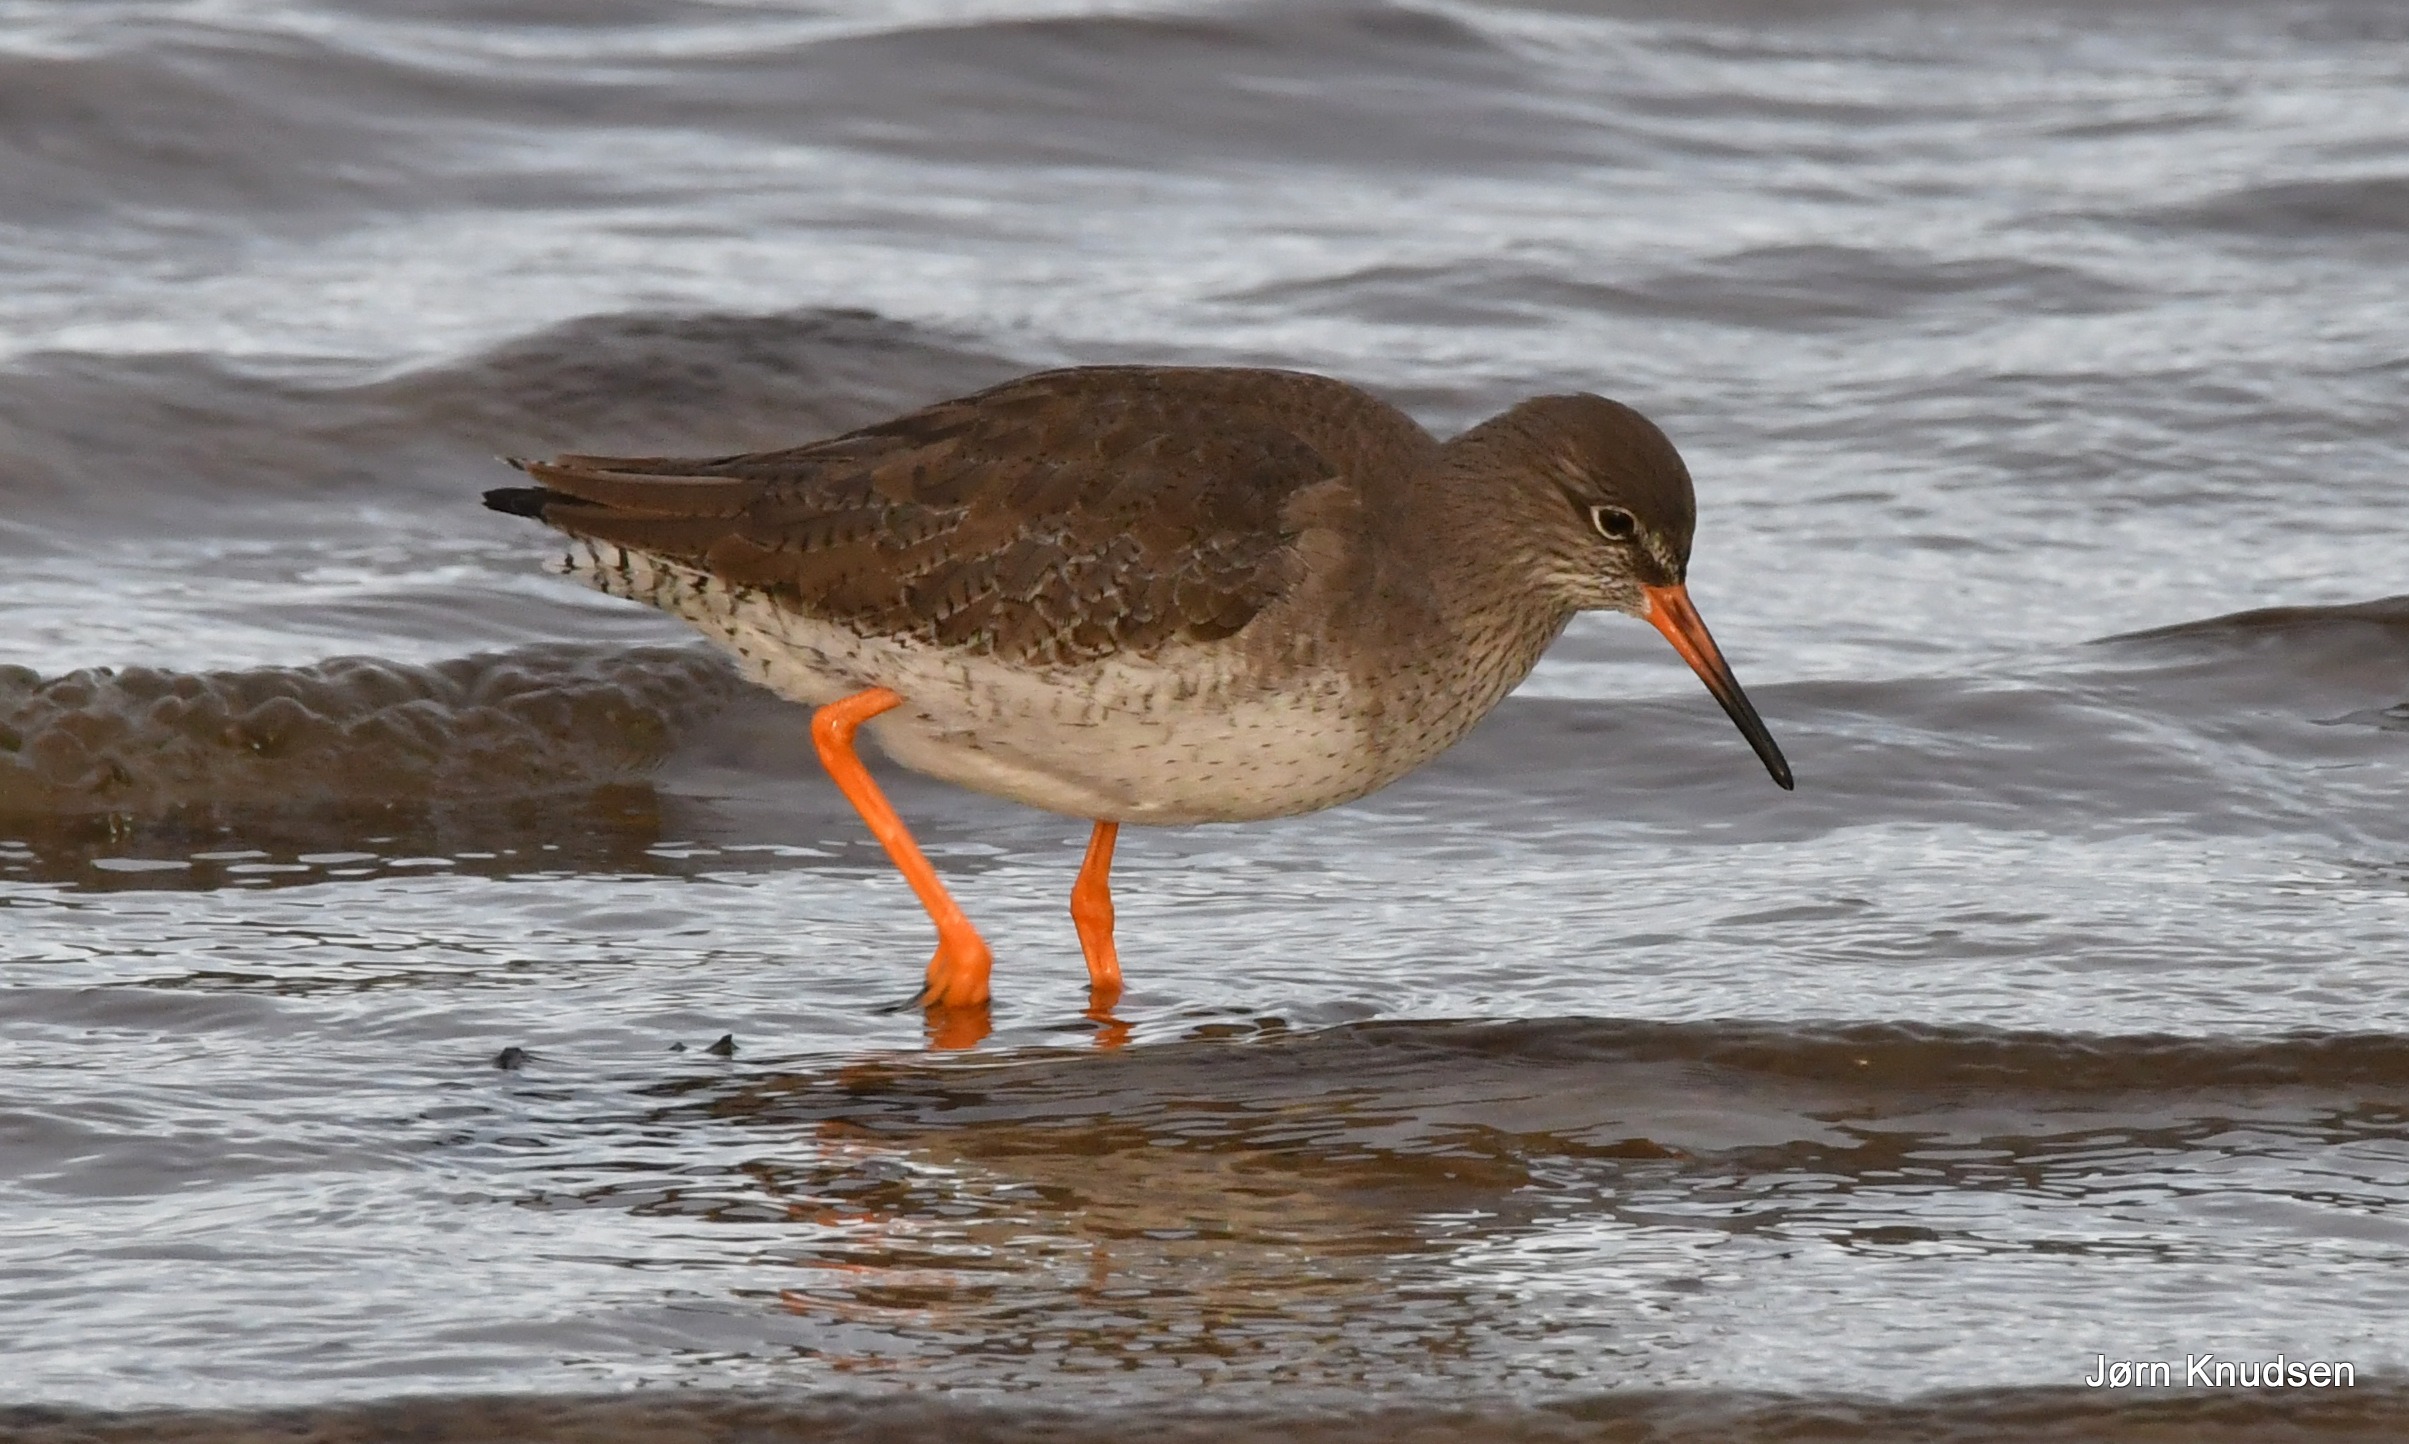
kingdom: Animalia
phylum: Chordata
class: Aves
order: Charadriiformes
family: Scolopacidae
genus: Tringa
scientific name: Tringa totanus
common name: Rødben
